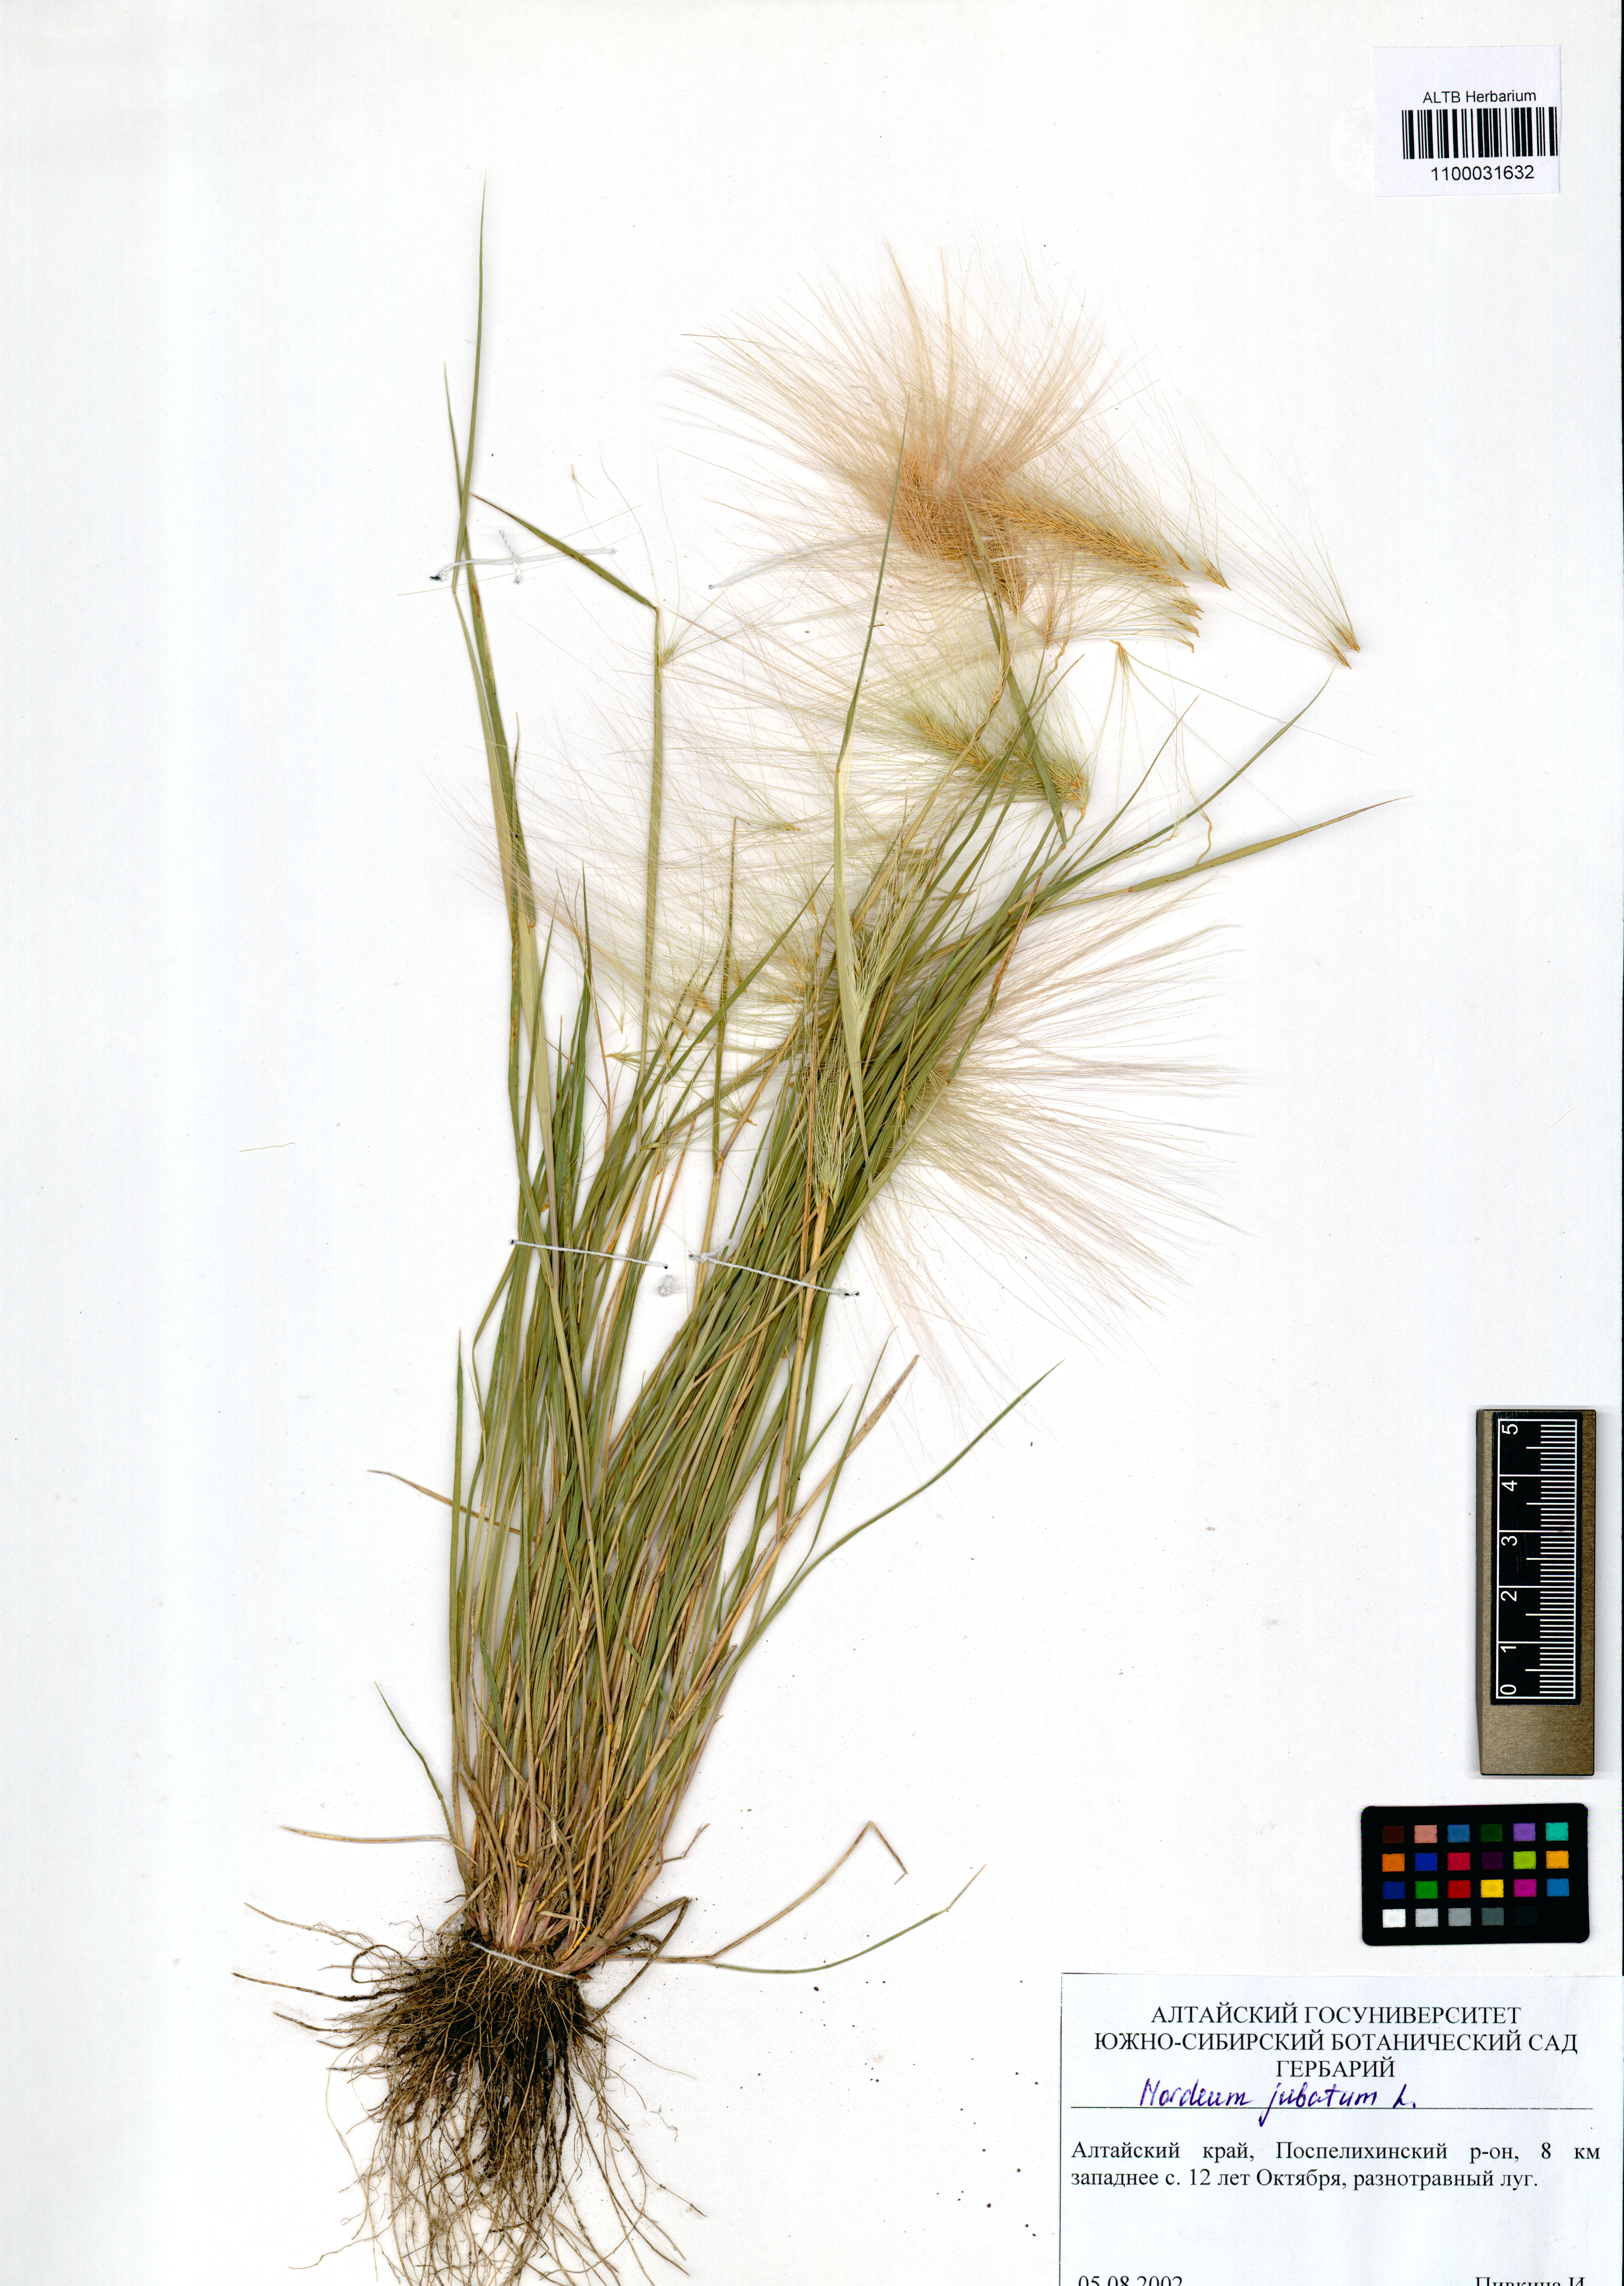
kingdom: Plantae
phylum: Tracheophyta
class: Liliopsida
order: Poales
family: Poaceae
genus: Hordeum
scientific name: Hordeum jubatum
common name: Foxtail barley
